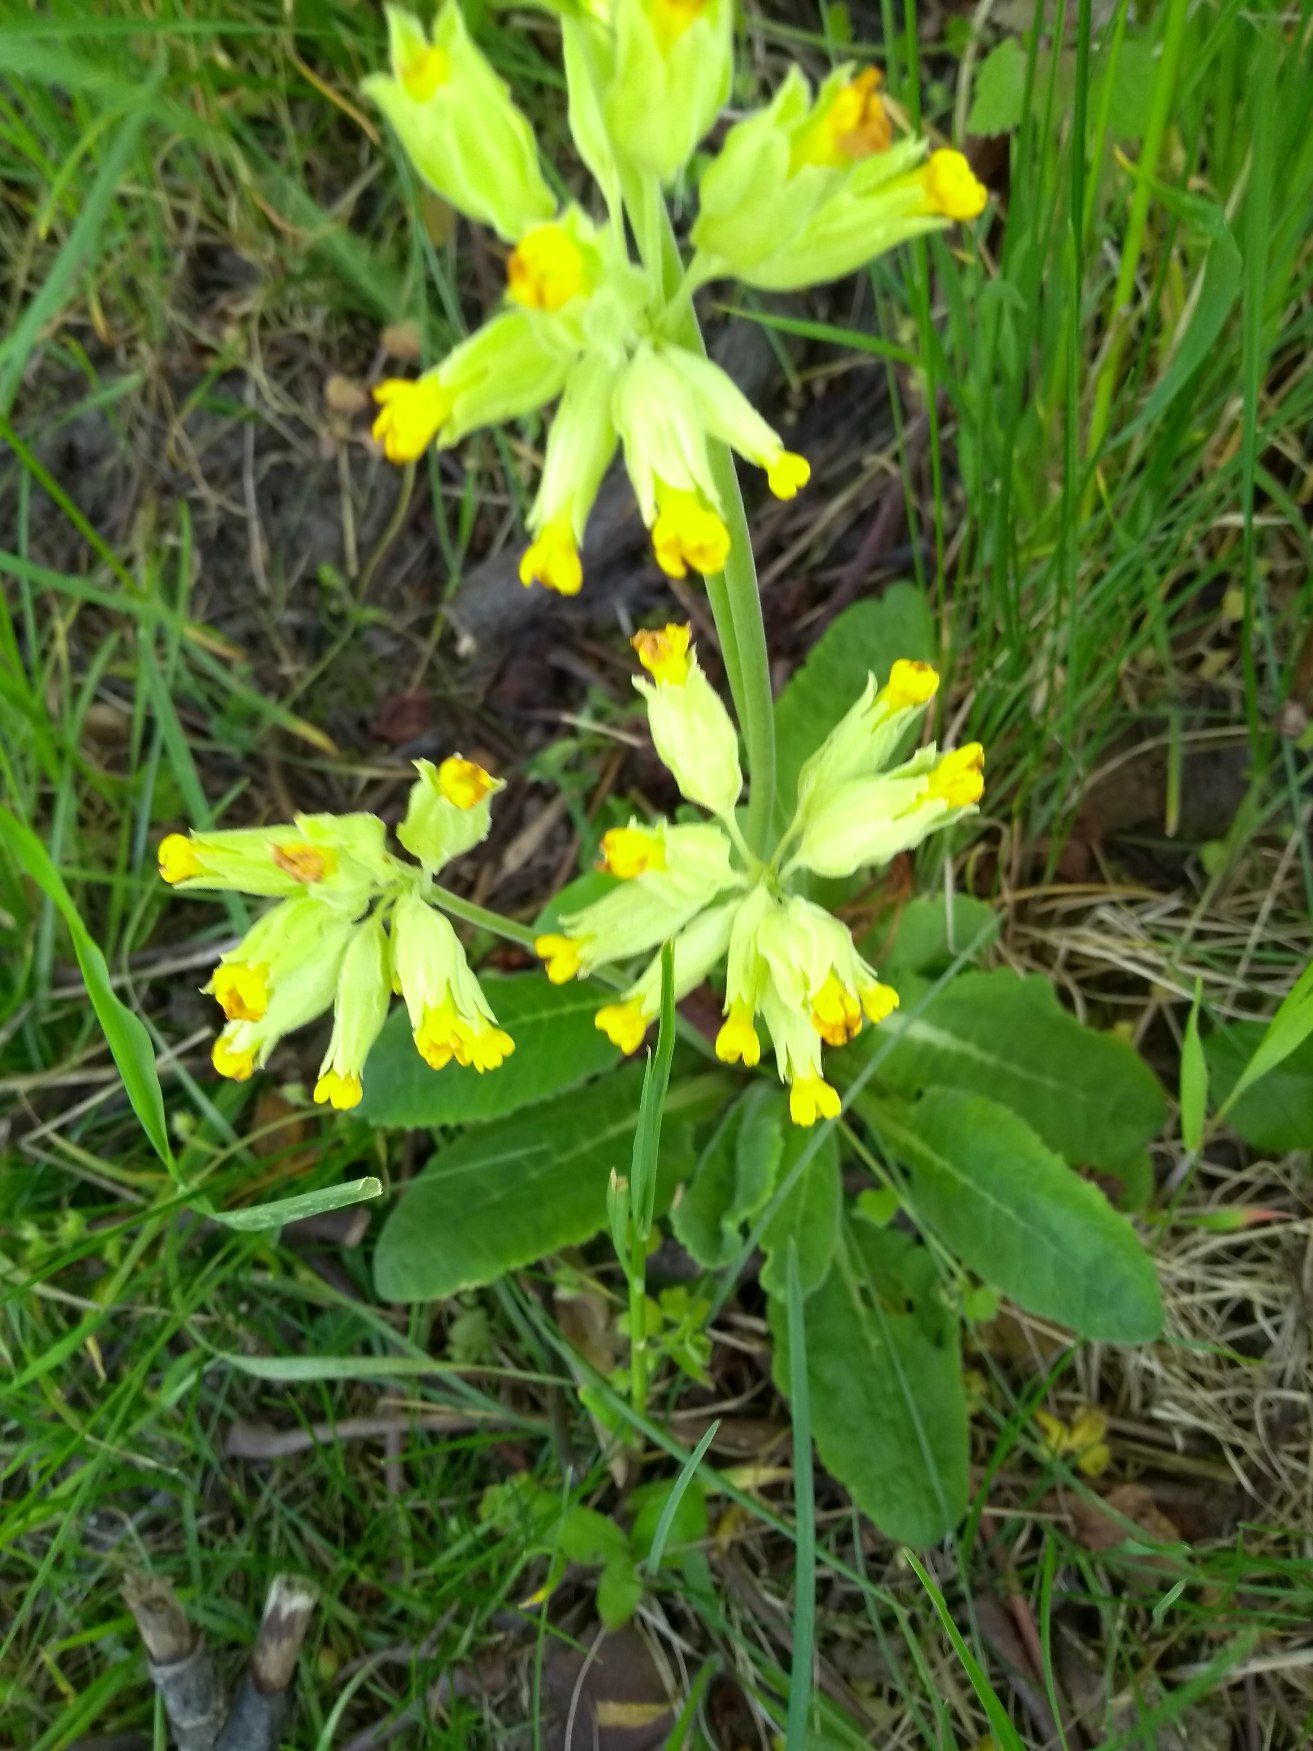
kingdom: Plantae
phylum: Tracheophyta
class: Magnoliopsida
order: Ericales
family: Primulaceae
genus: Primula
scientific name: Primula veris
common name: Hulkravet kodriver
